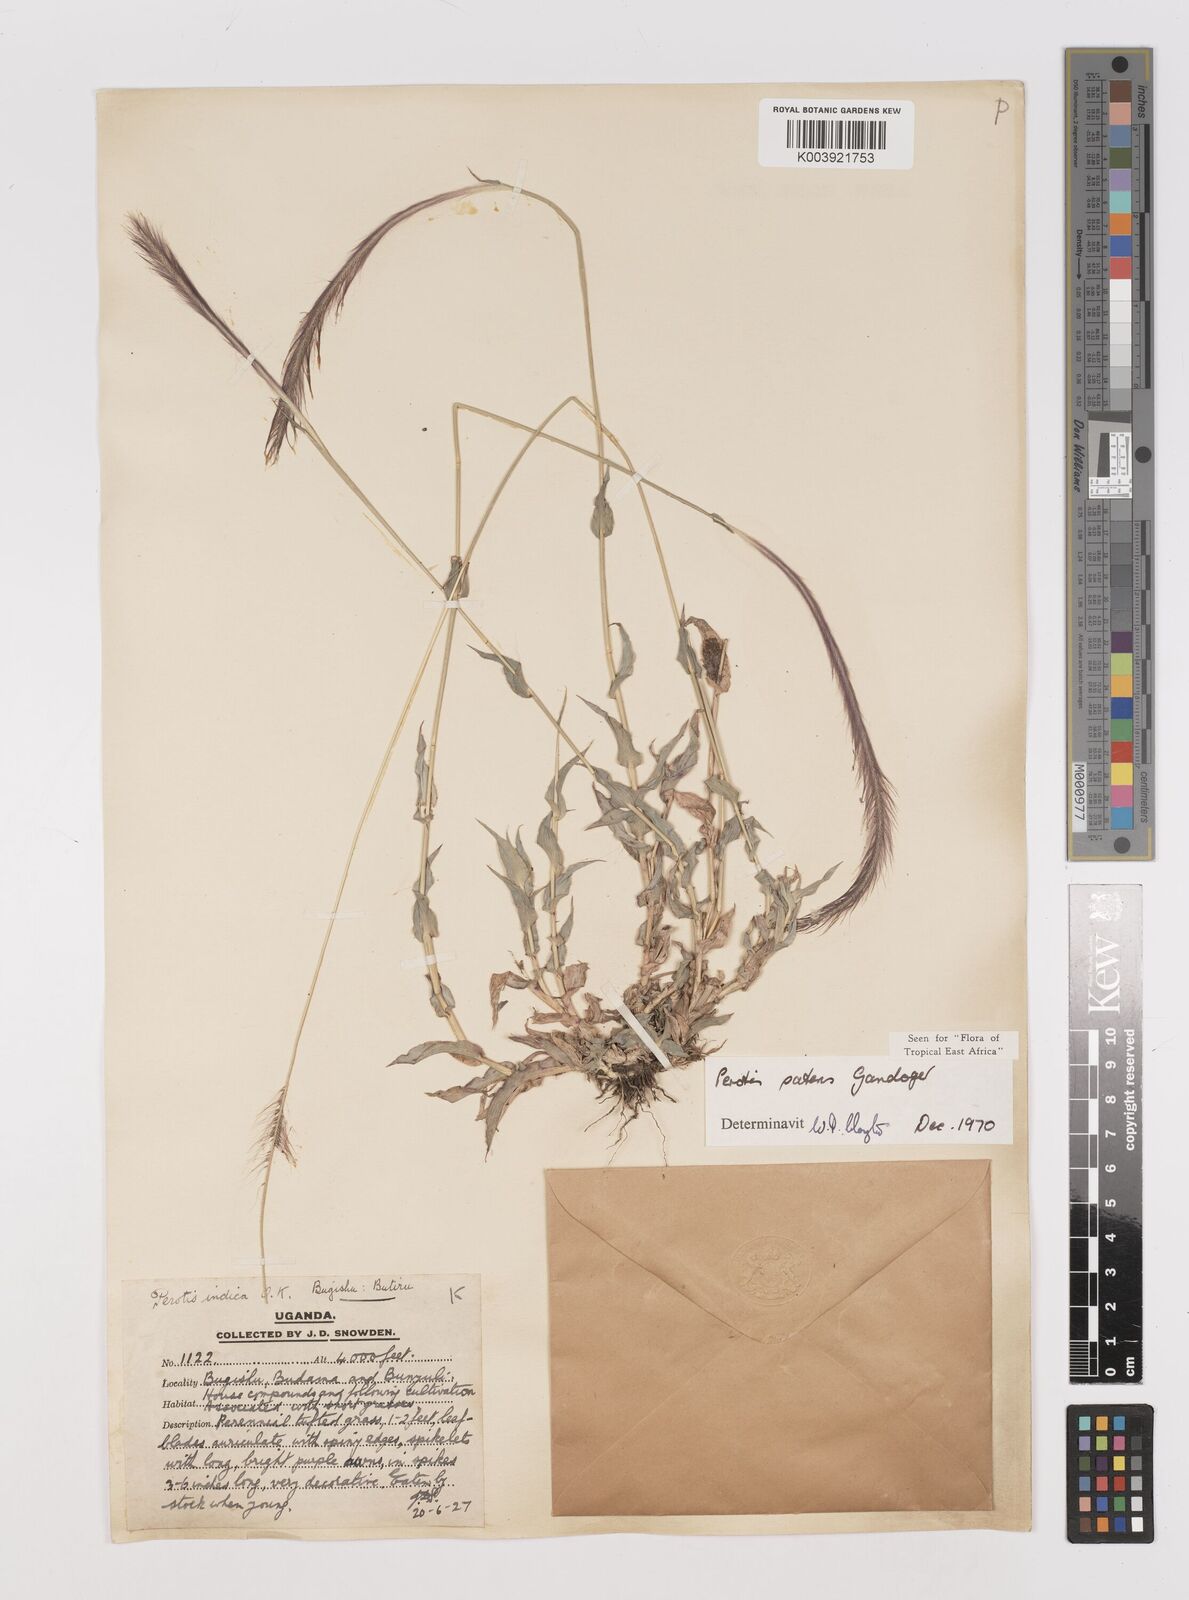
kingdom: Plantae
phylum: Tracheophyta
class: Liliopsida
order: Poales
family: Poaceae
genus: Perotis
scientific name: Perotis patens
